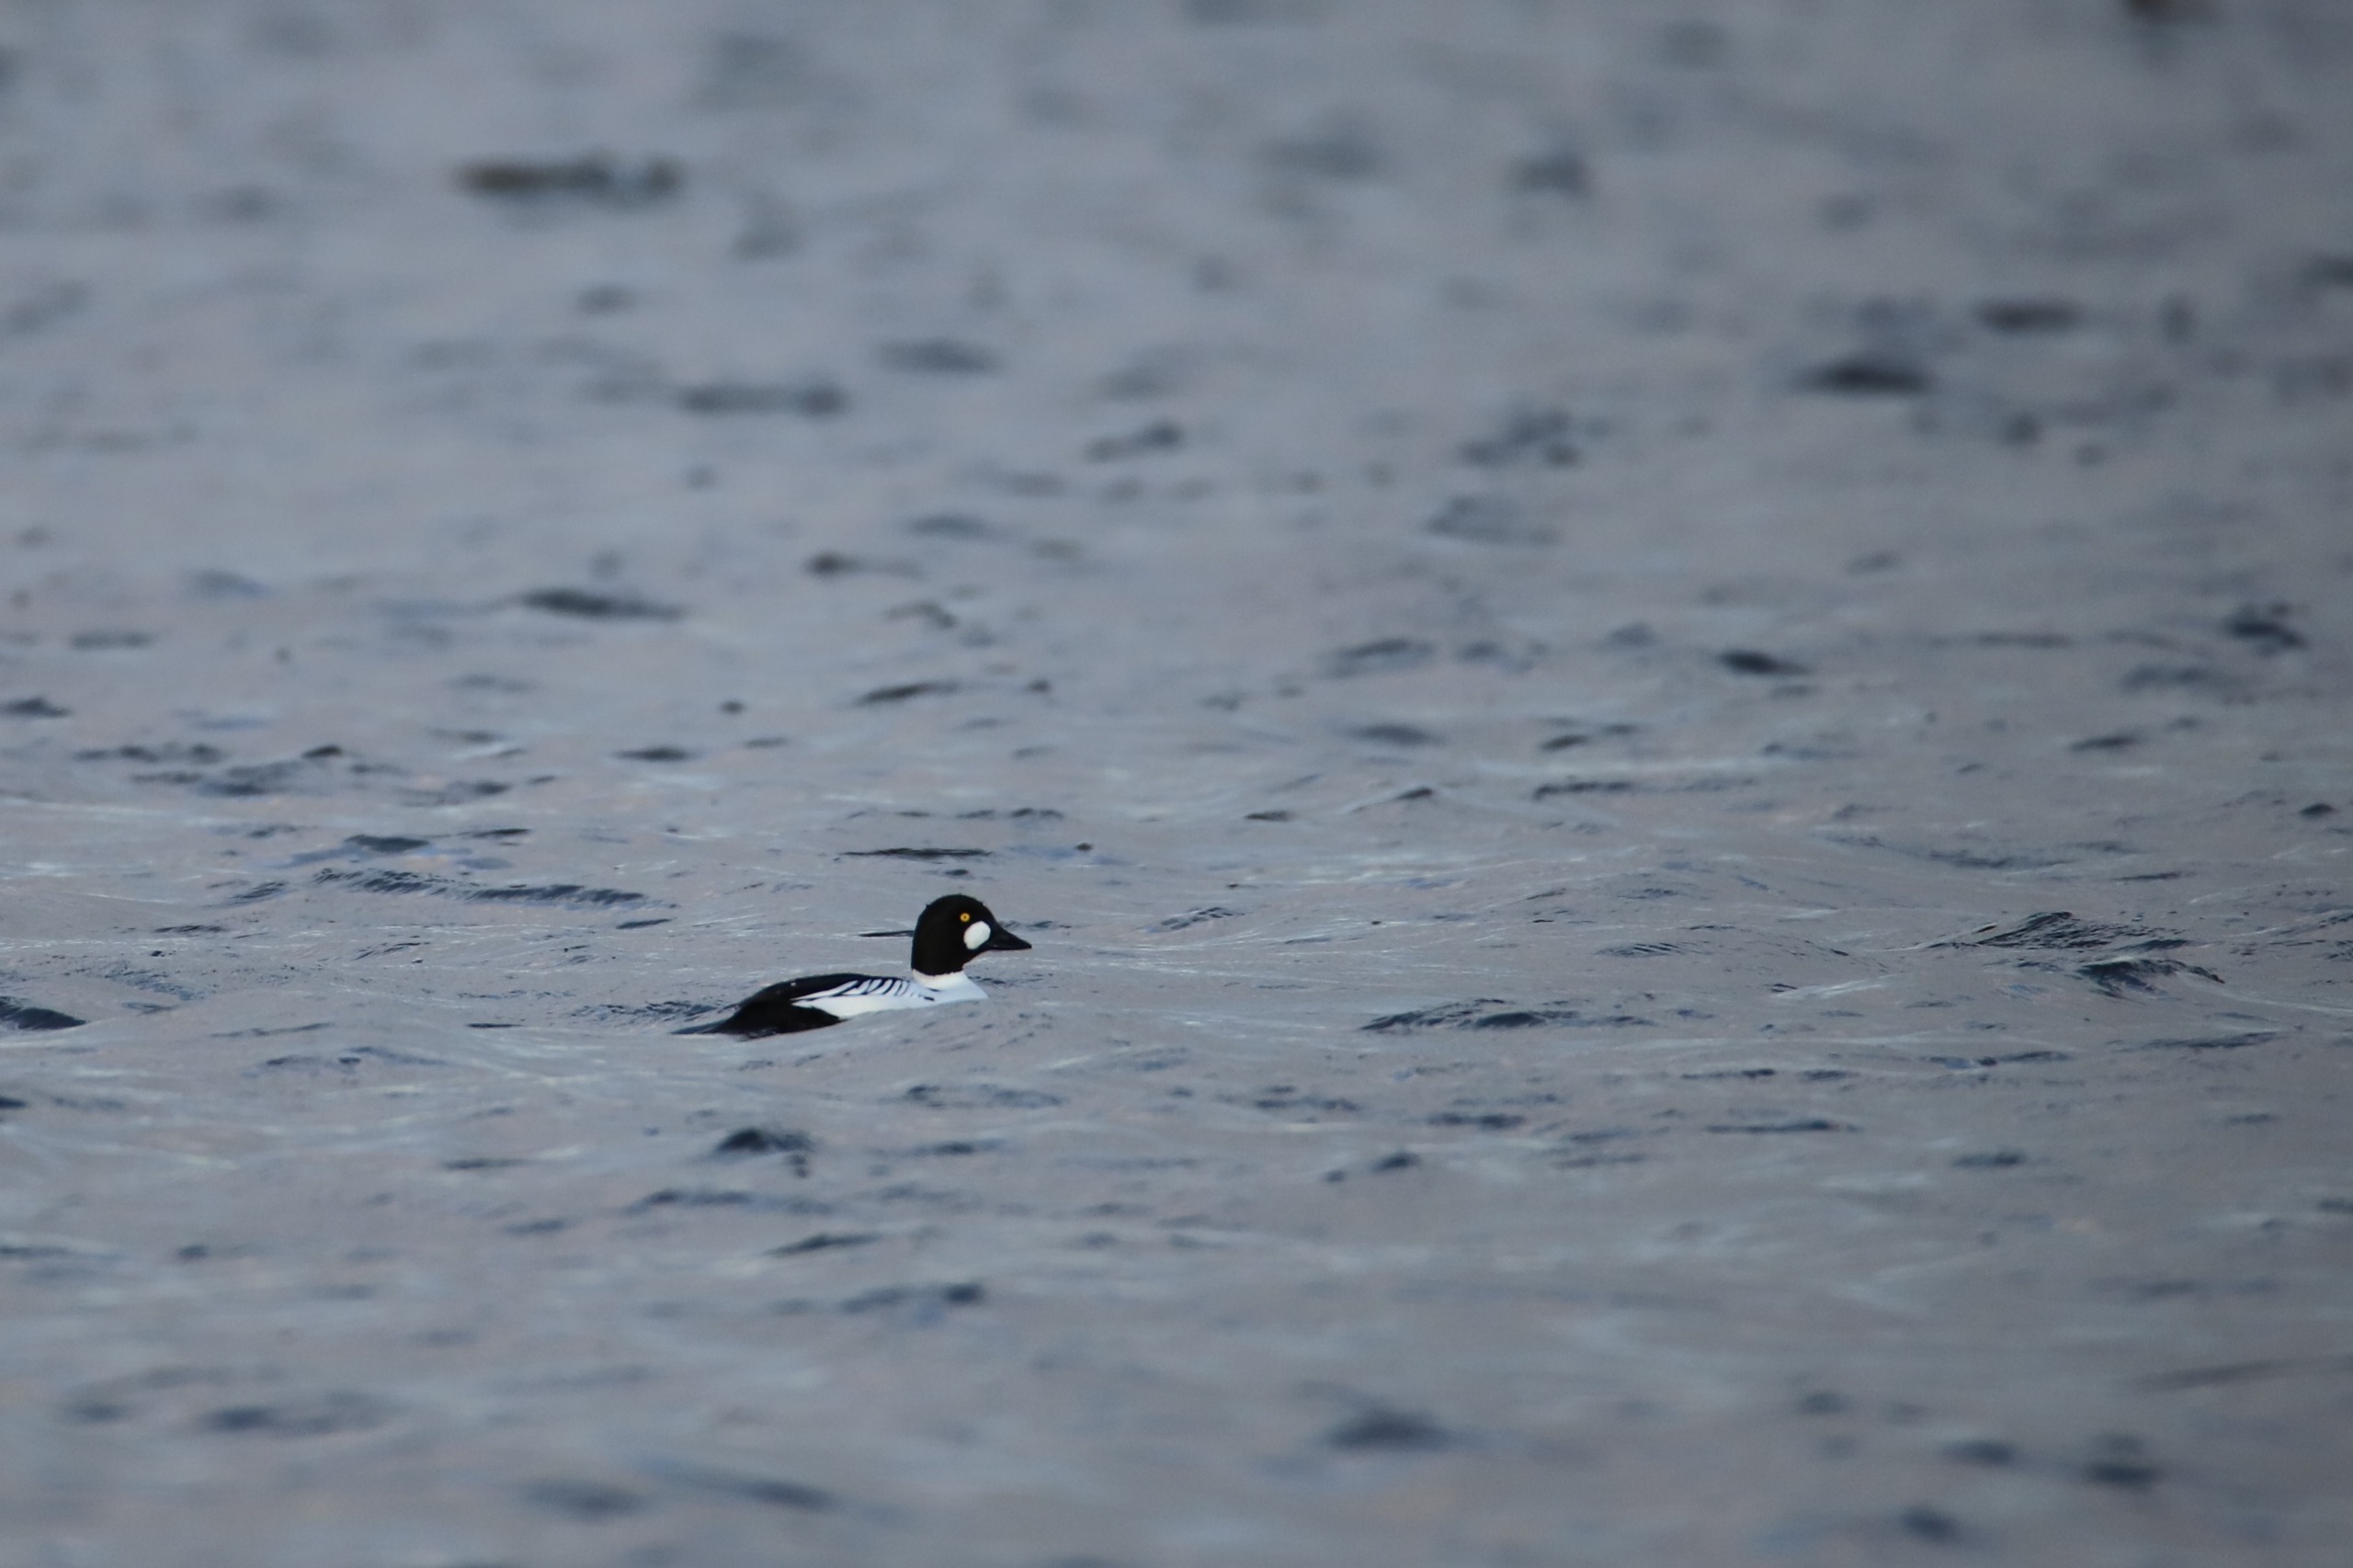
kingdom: Animalia
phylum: Chordata
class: Aves
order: Anseriformes
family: Anatidae
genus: Bucephala
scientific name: Bucephala clangula
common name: Hvinand
